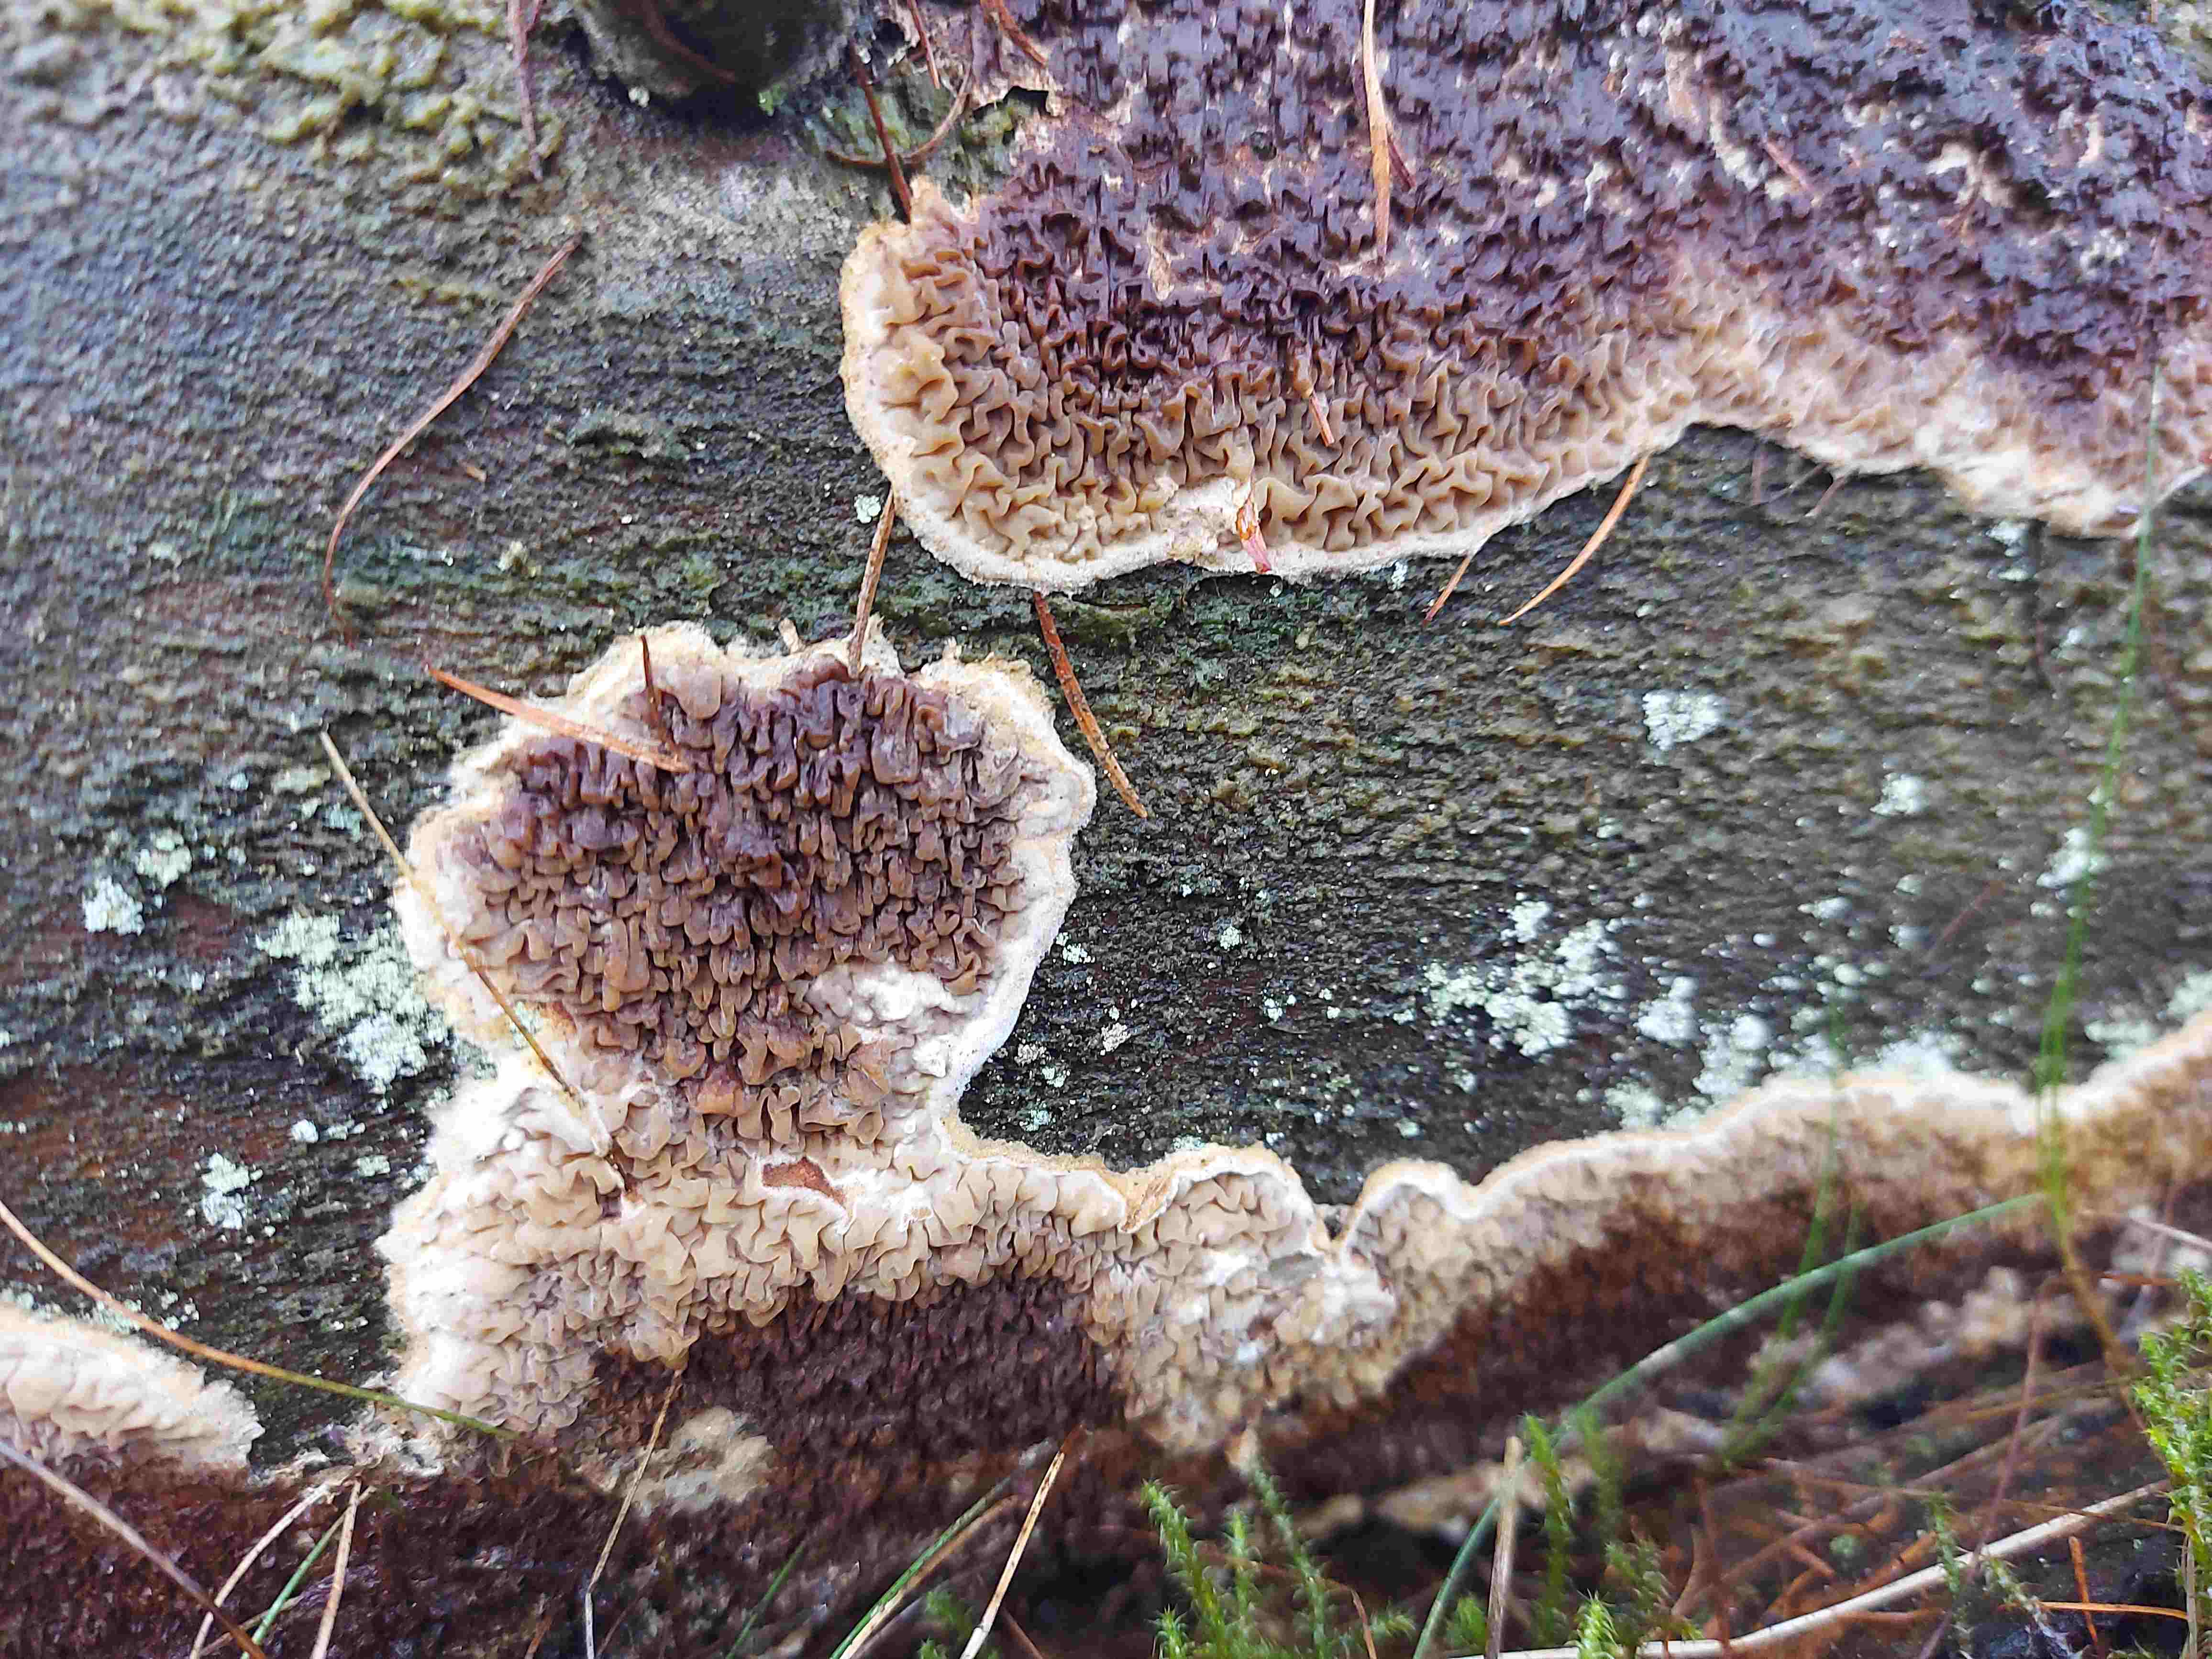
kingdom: Fungi
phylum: Basidiomycota
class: Agaricomycetes
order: Boletales
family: Serpulaceae
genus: Serpula
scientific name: Serpula himantioides
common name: tyndkødet hussvamp
